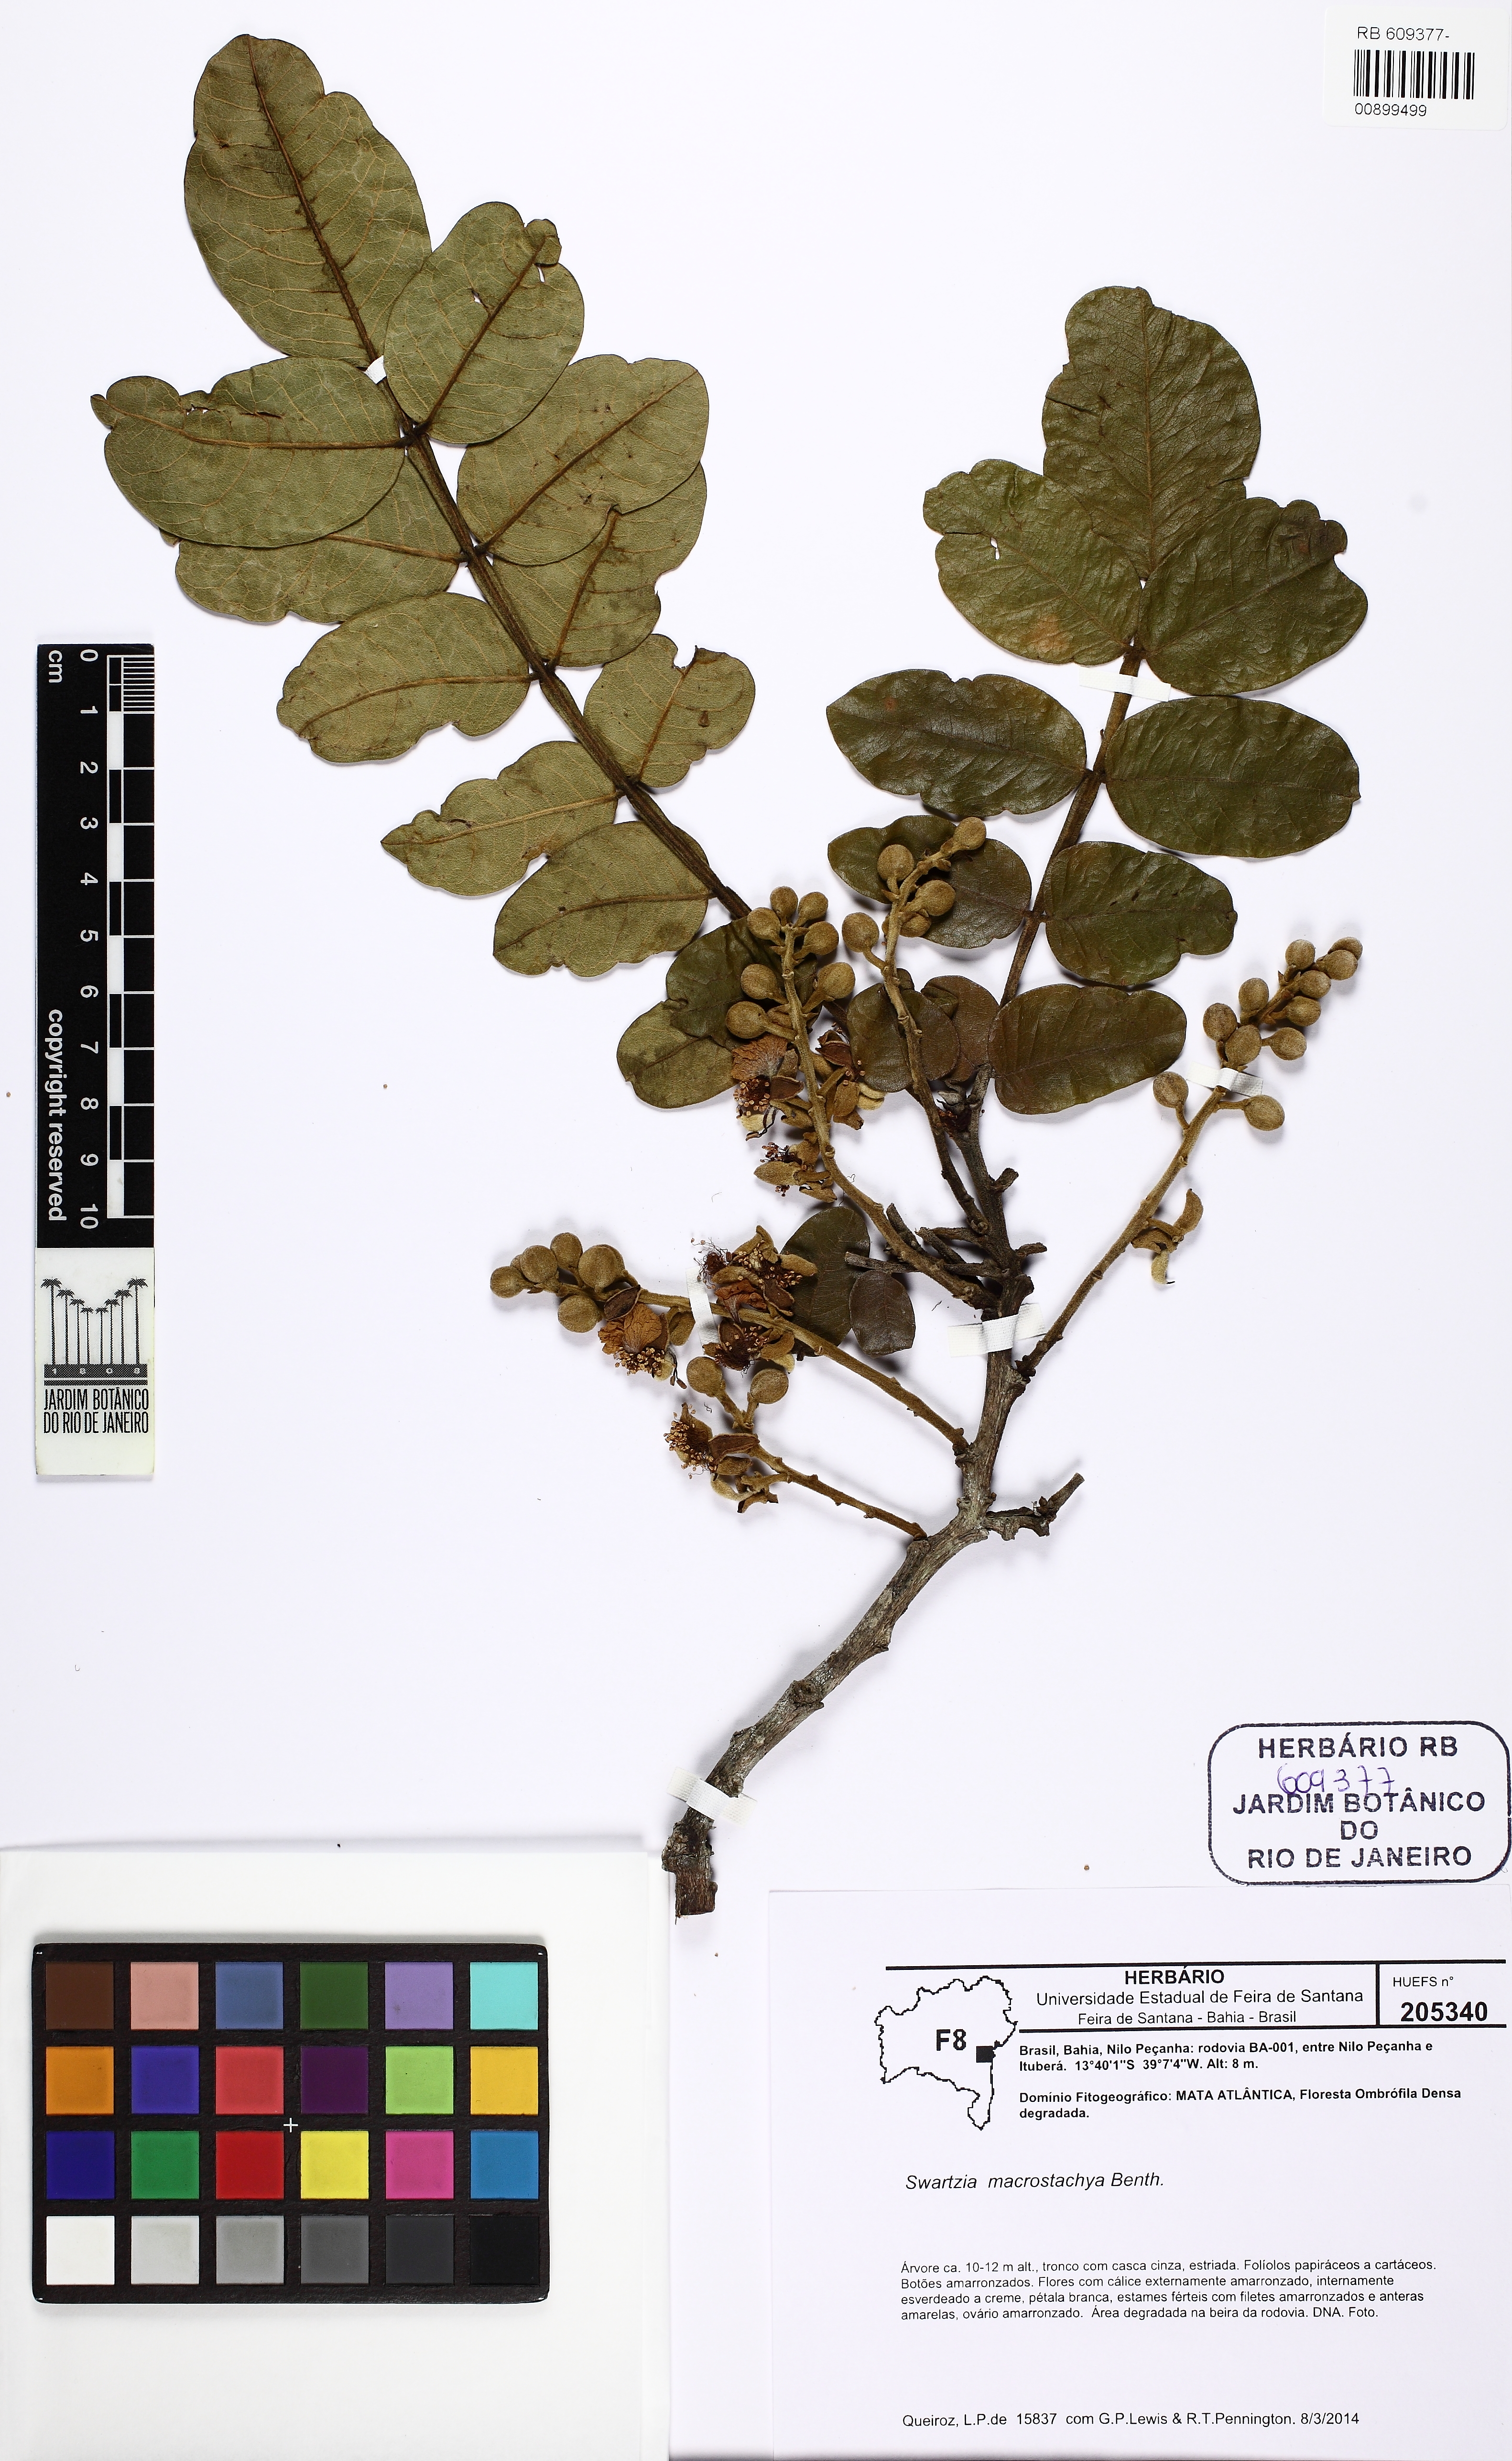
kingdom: Plantae
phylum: Tracheophyta
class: Magnoliopsida
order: Fabales
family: Fabaceae
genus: Swartzia
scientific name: Swartzia macrostachya
